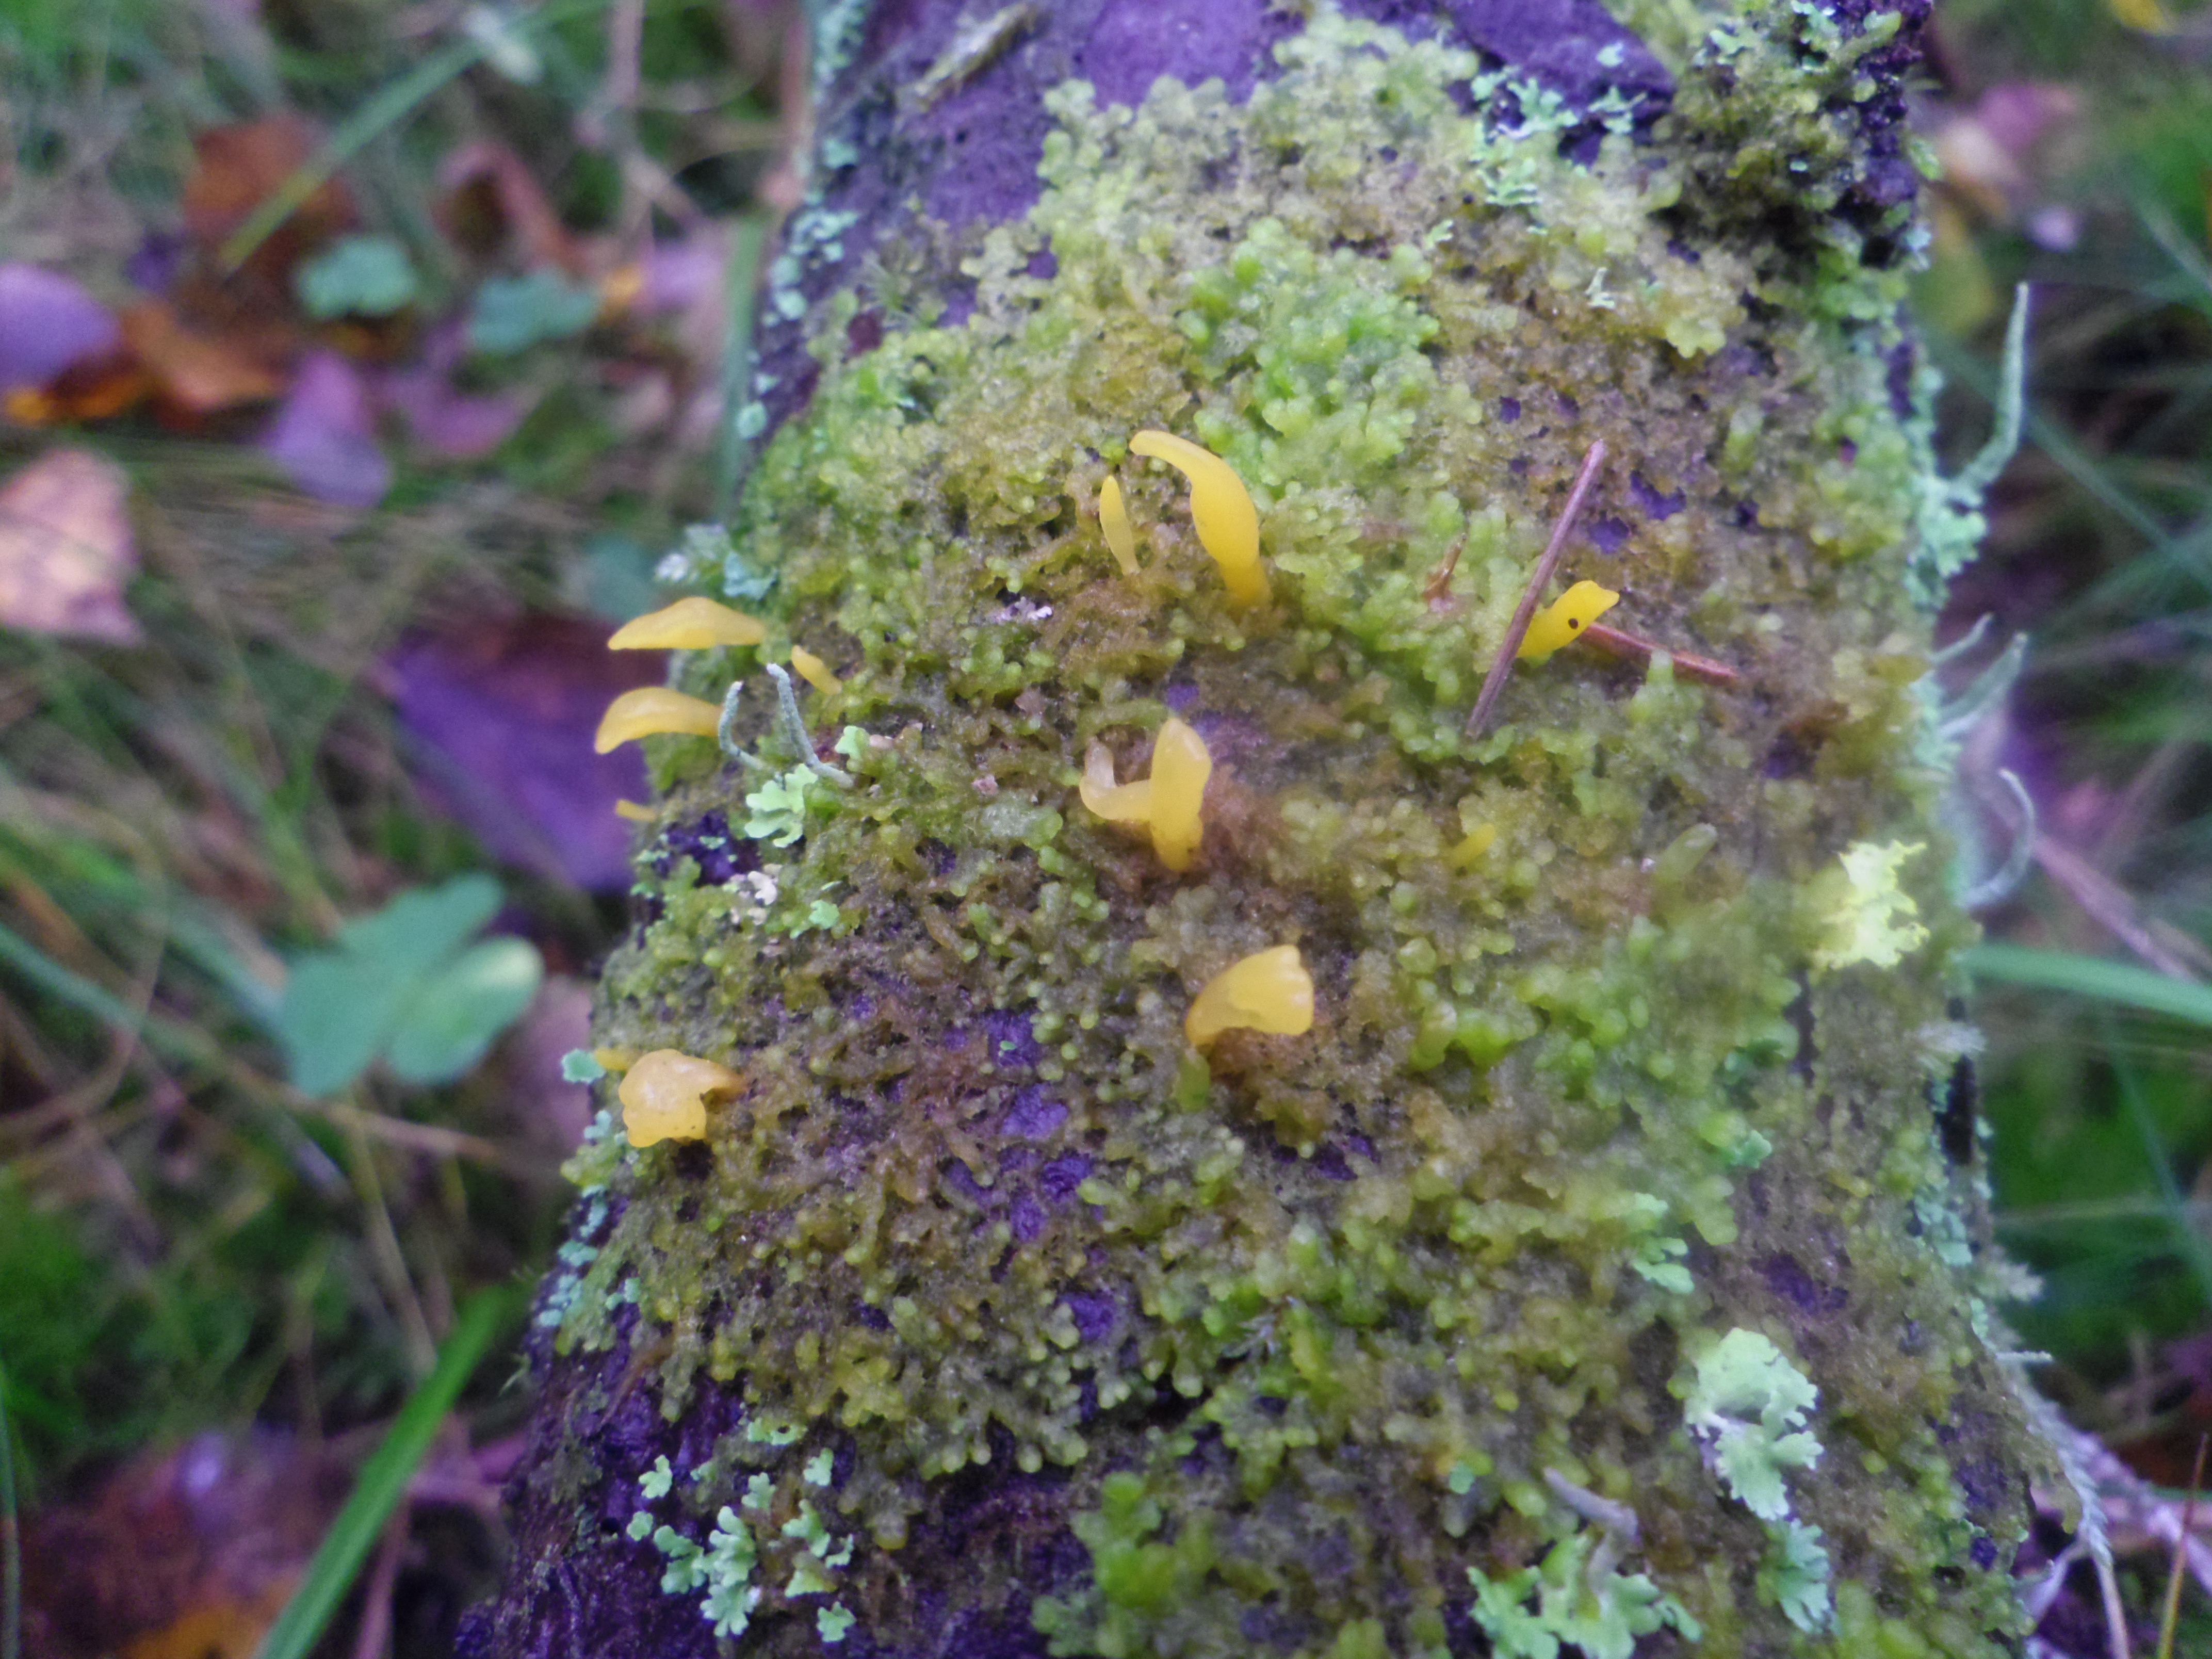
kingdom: Fungi
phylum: Basidiomycota
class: Dacrymycetes
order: Dacrymycetales
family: Dacrymycetaceae
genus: Calocera
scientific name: Calocera furcata
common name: Forked stagshorn
